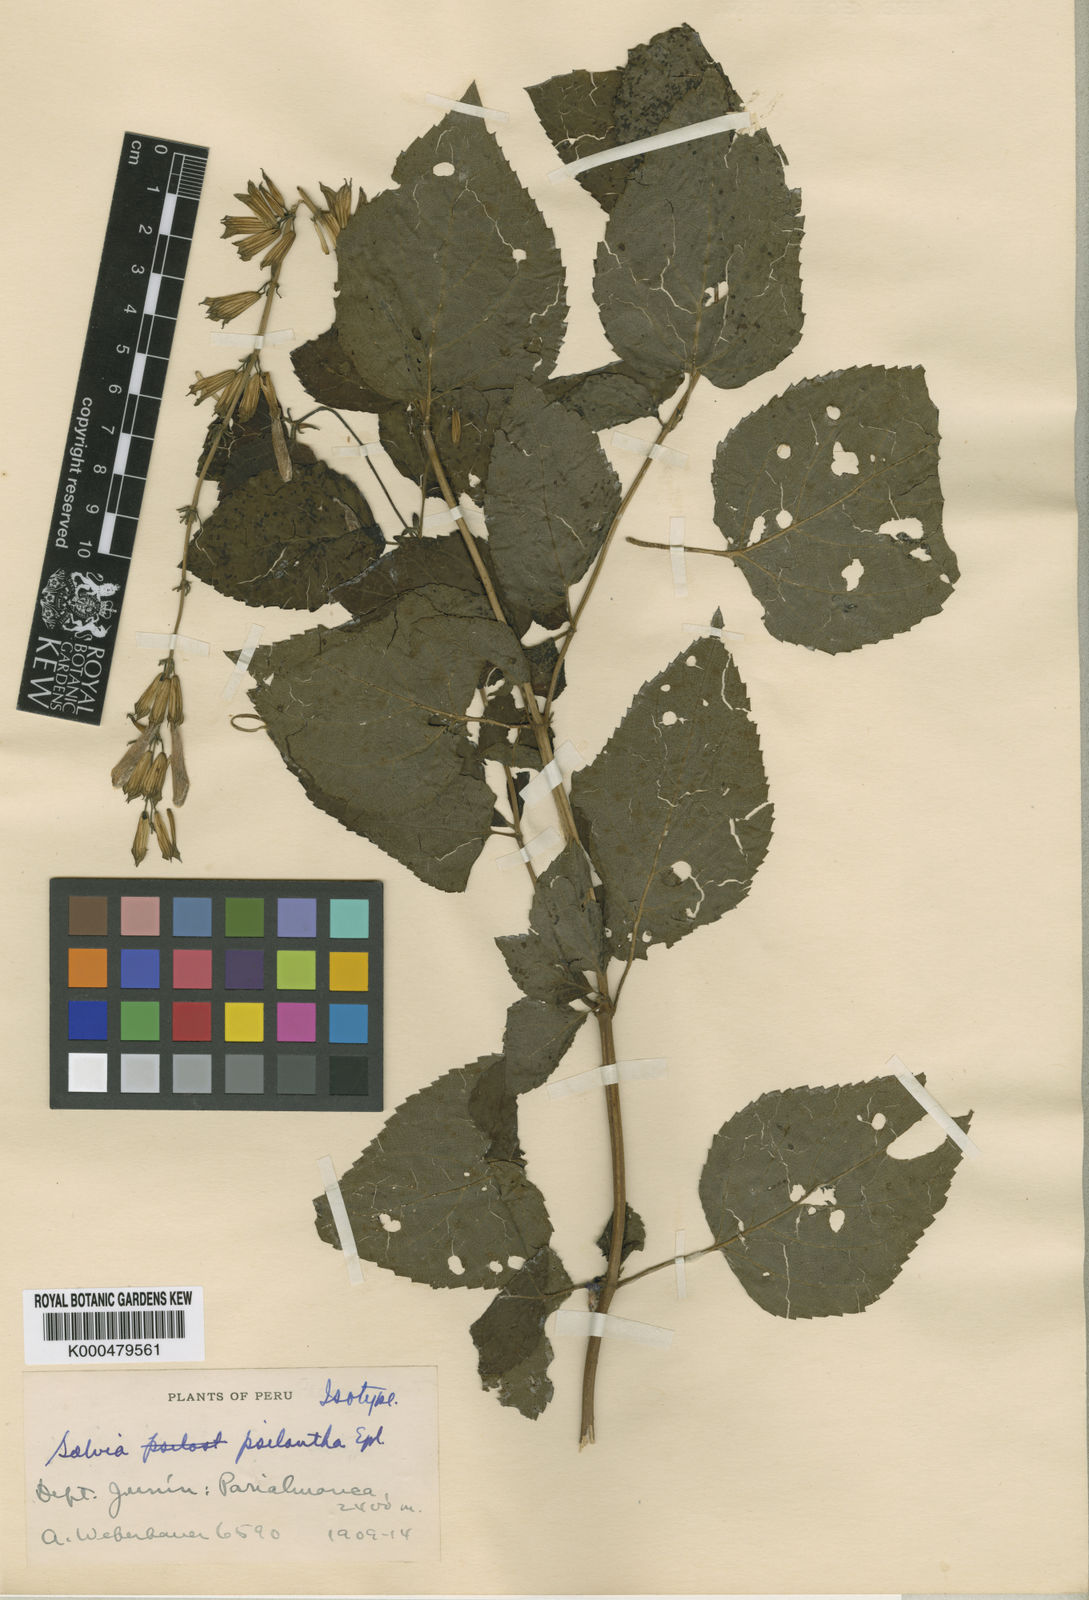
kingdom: Plantae
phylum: Tracheophyta
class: Magnoliopsida
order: Lamiales
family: Lamiaceae
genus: Salvia
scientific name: Salvia psilantha
